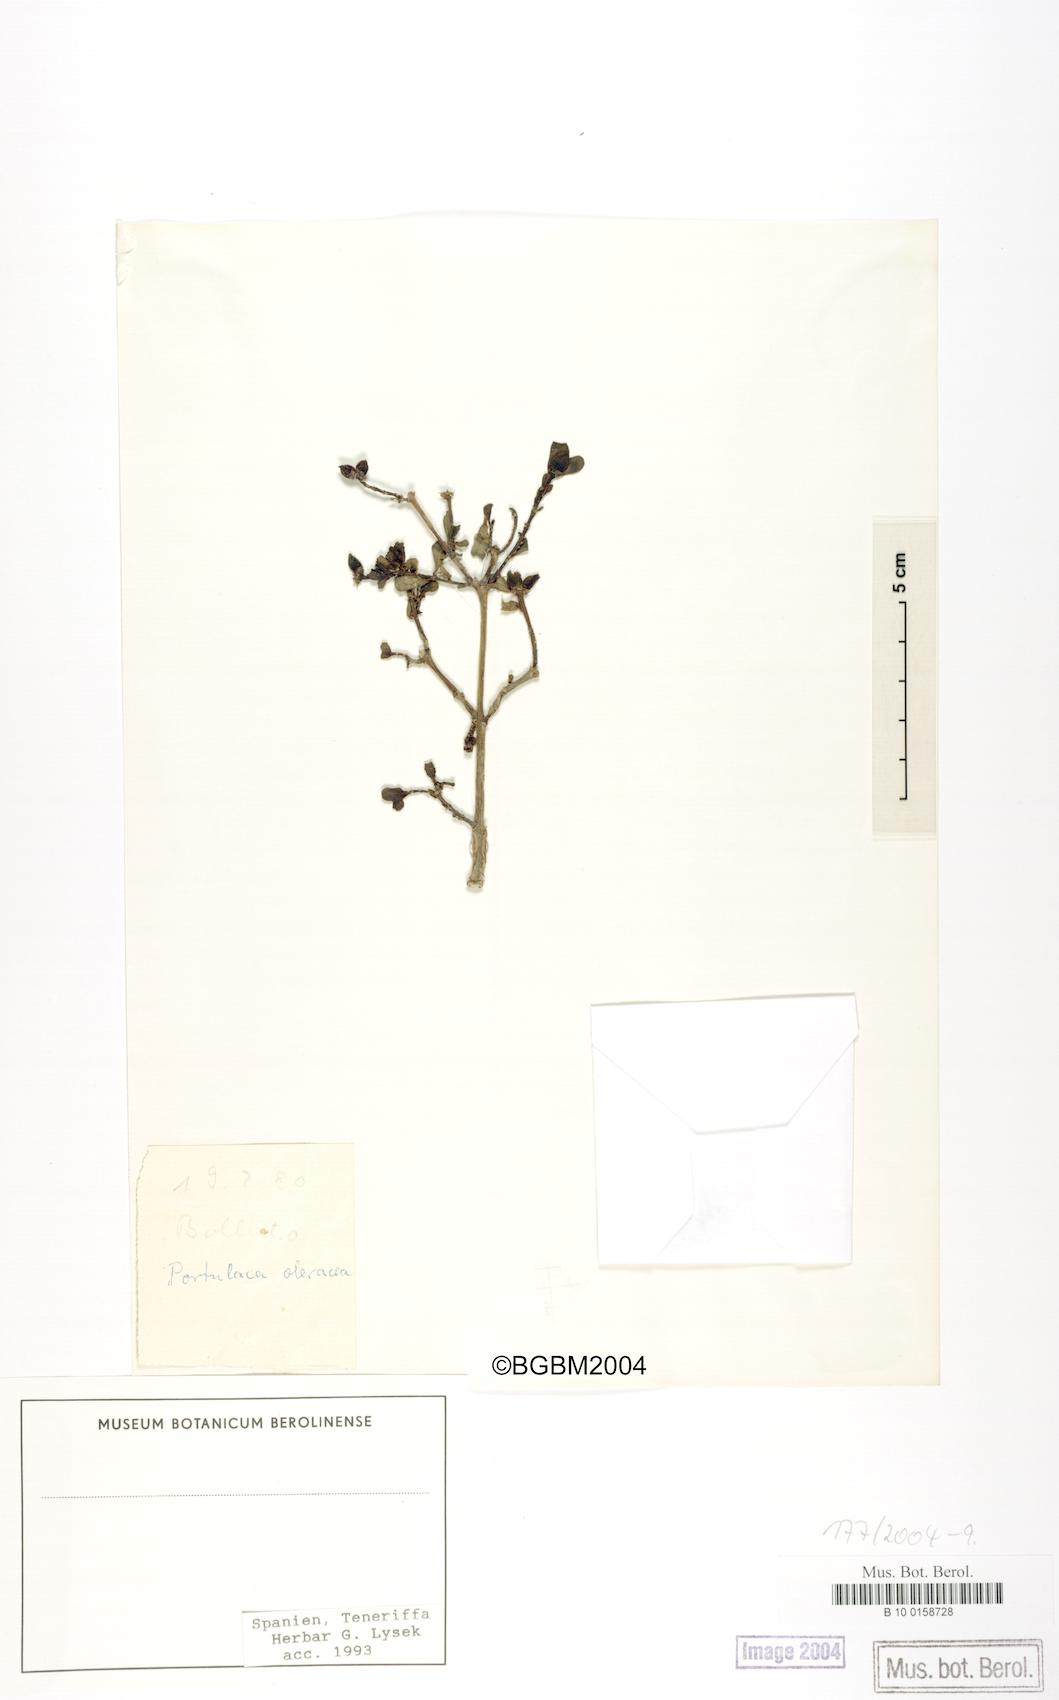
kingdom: Plantae
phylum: Tracheophyta
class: Magnoliopsida
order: Caryophyllales
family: Portulacaceae
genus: Portulaca
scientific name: Portulaca oleracea
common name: Common purslane
